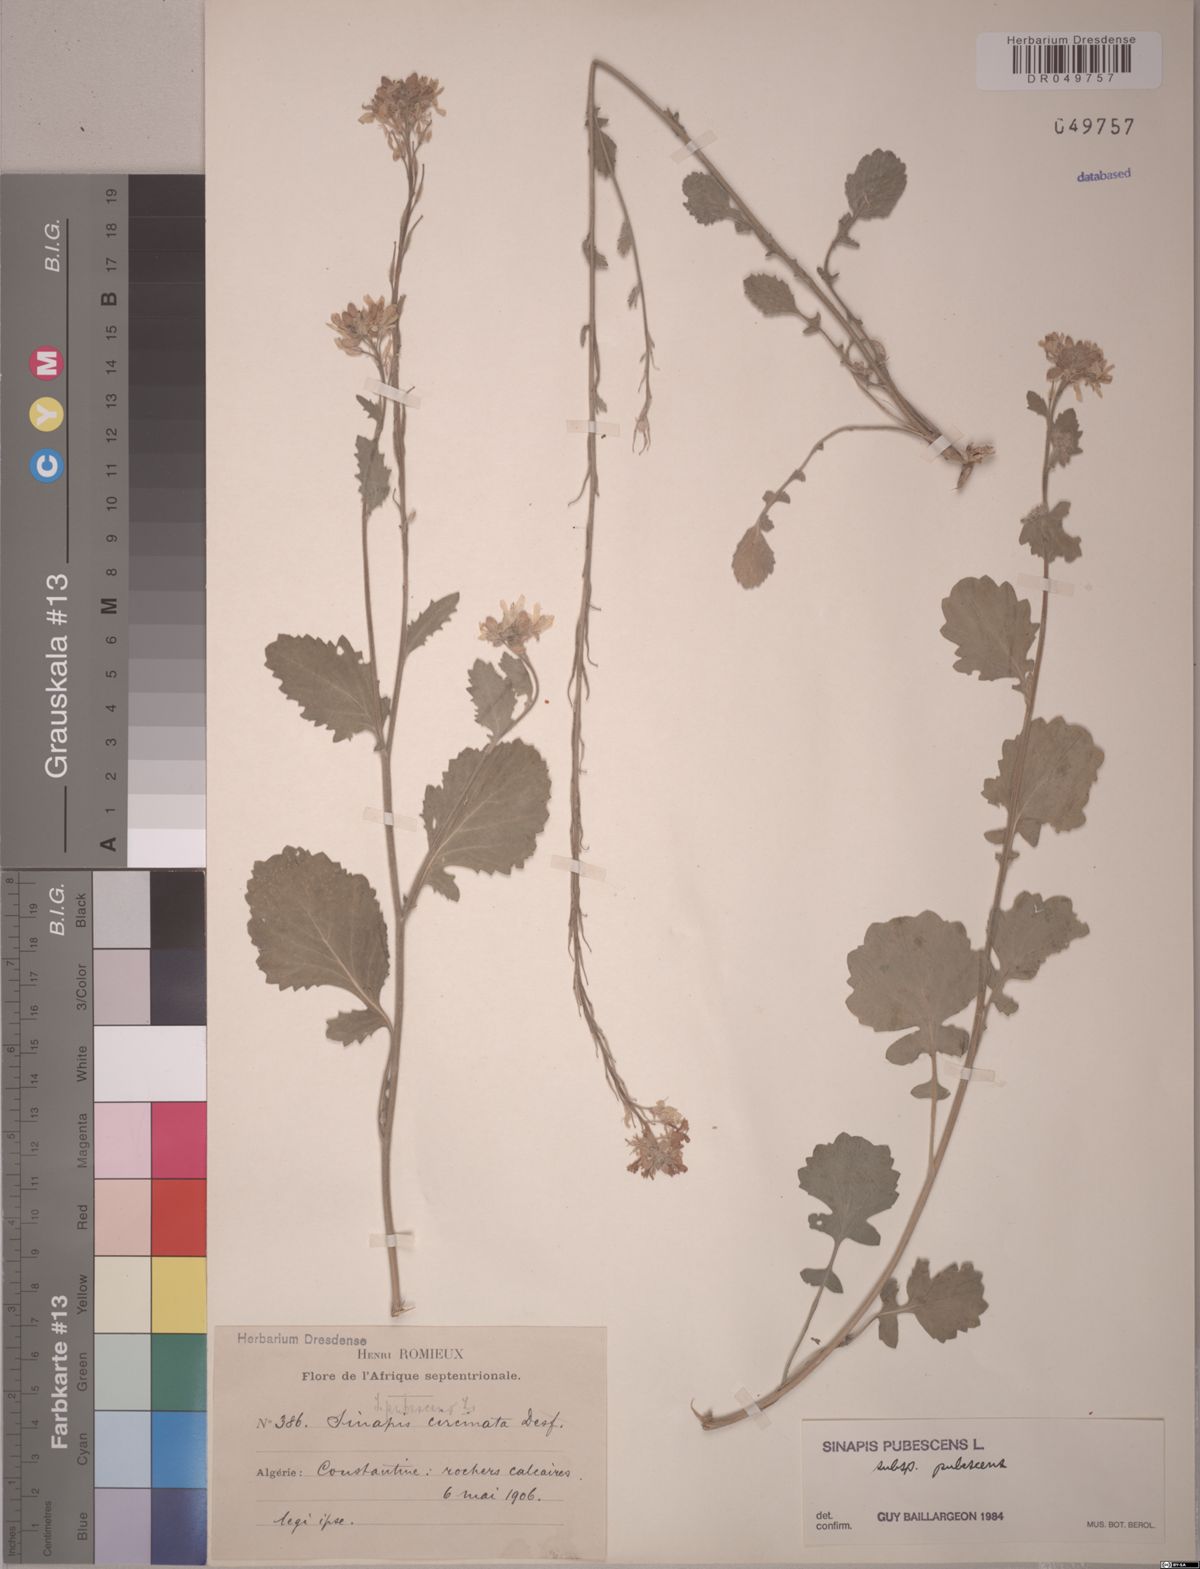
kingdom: Plantae
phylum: Tracheophyta
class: Magnoliopsida
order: Brassicales
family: Brassicaceae
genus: Sinapis
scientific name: Sinapis pubescens
